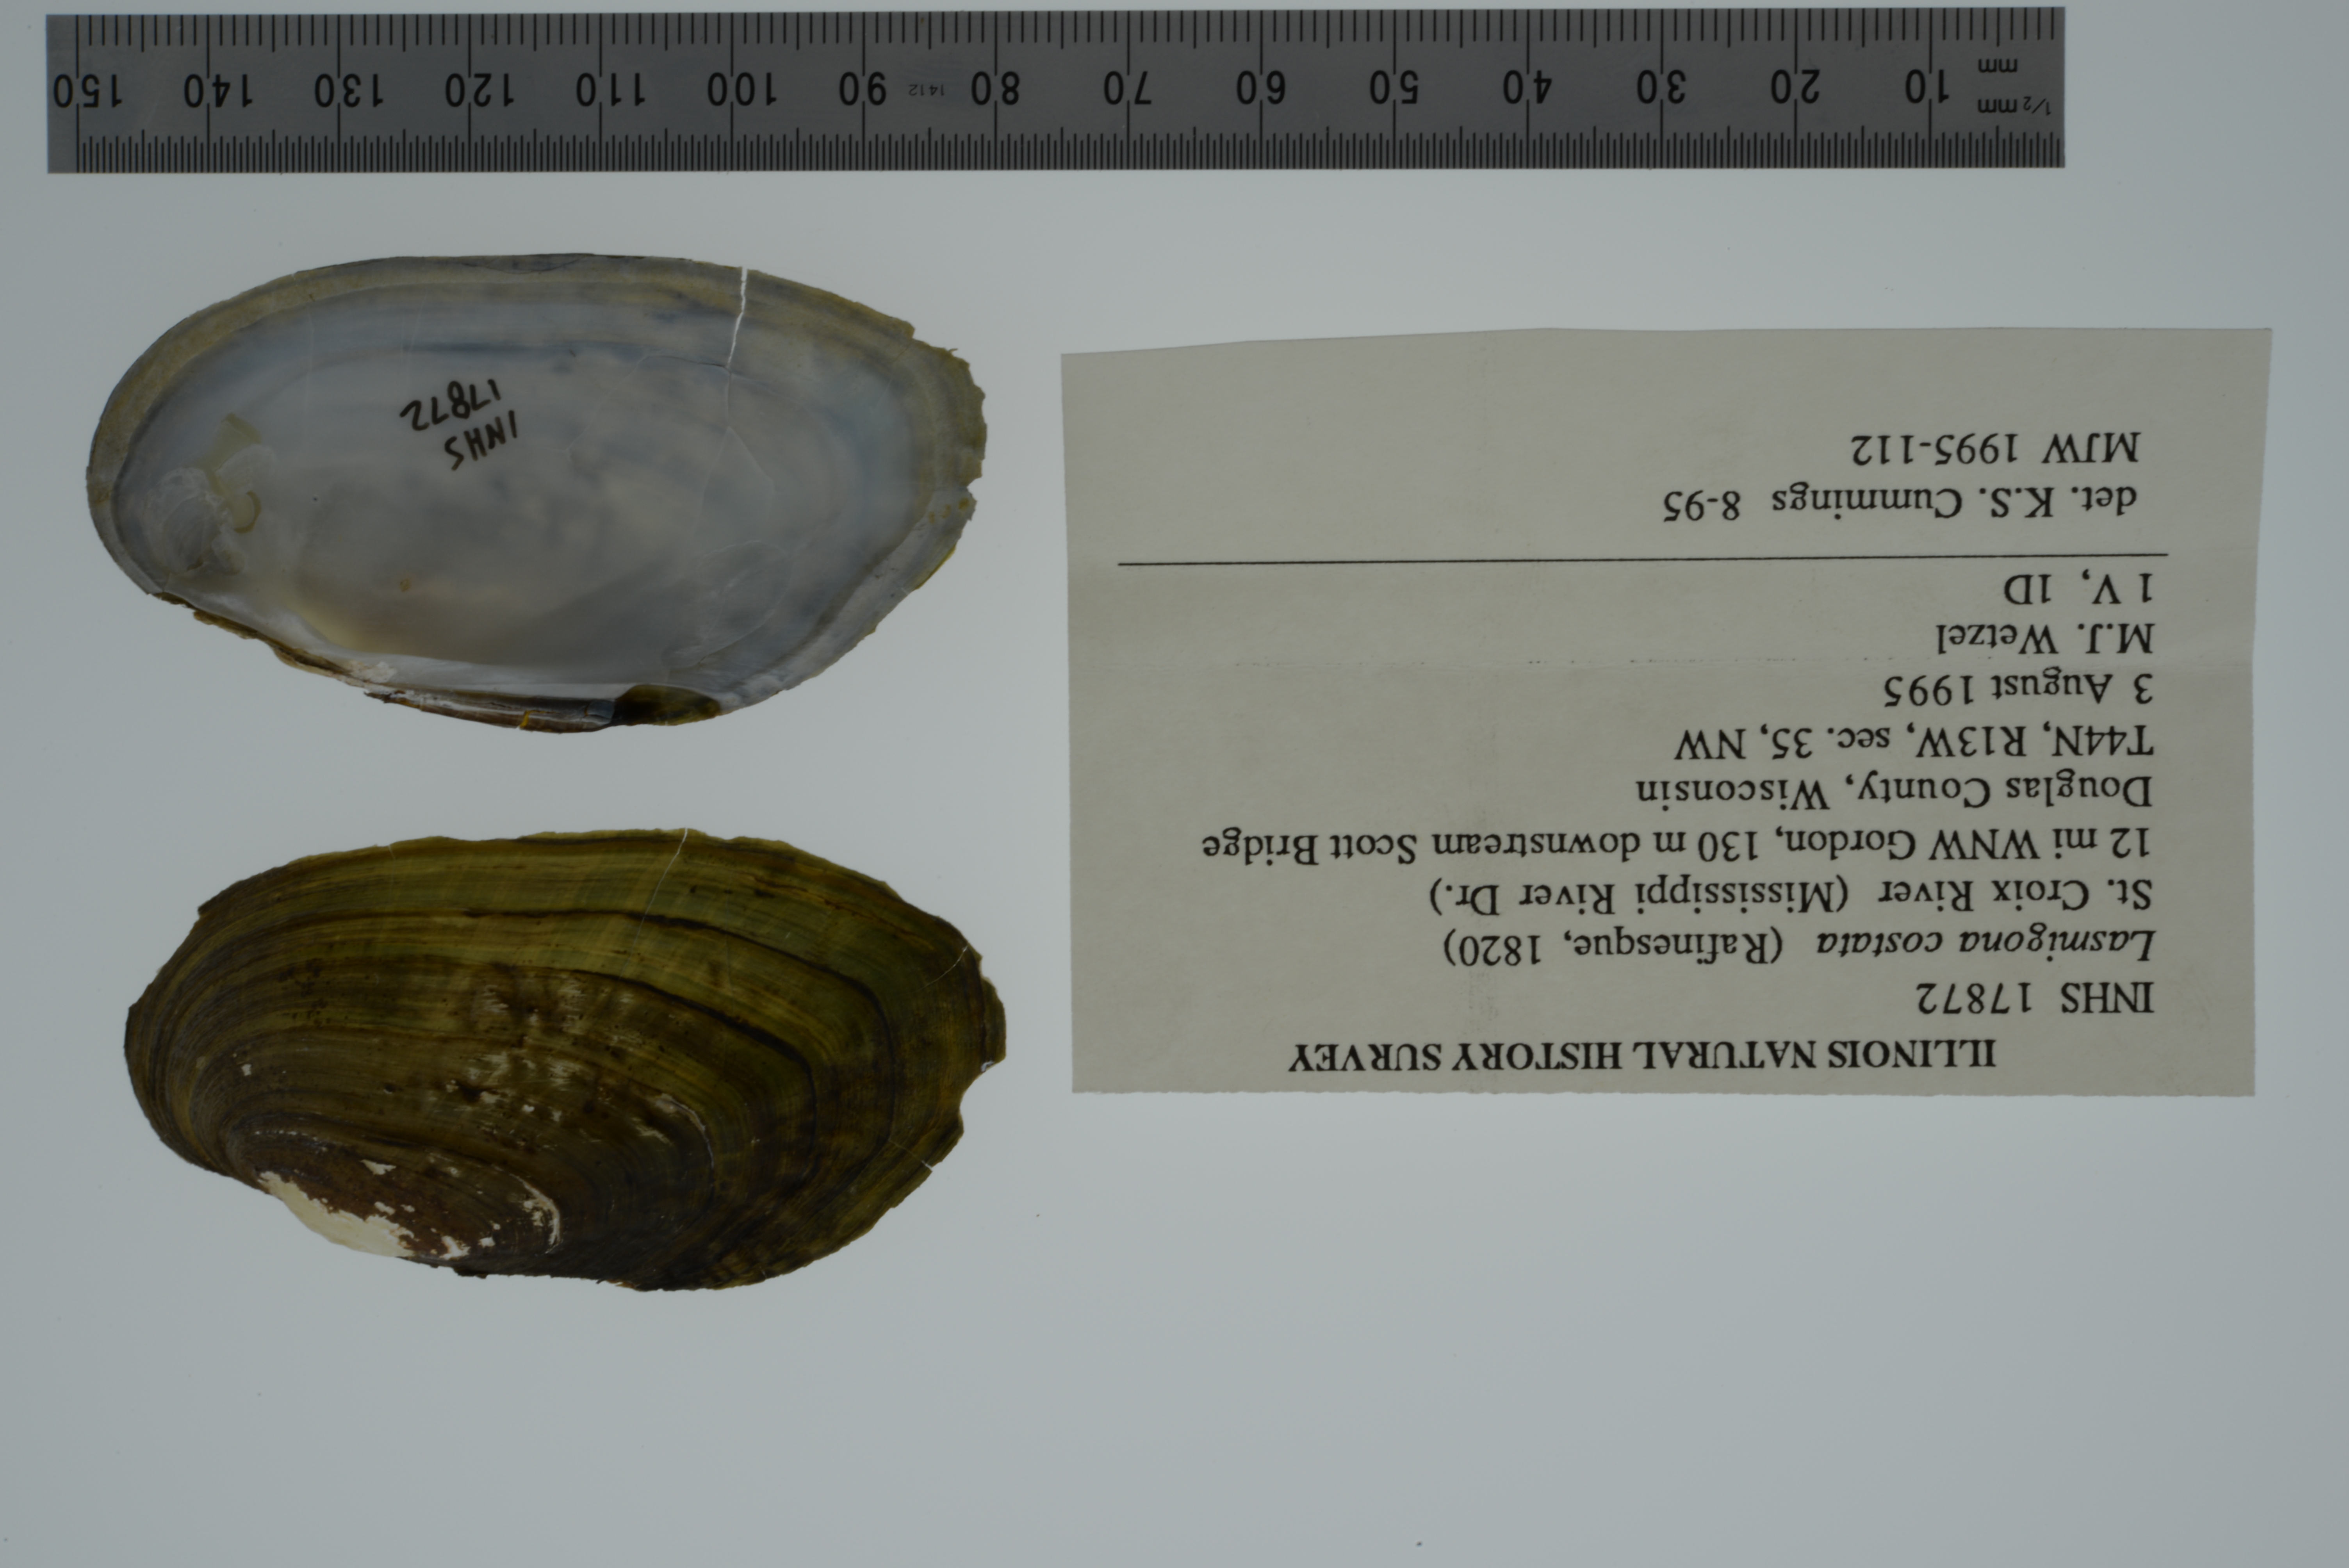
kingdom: Animalia
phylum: Mollusca
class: Bivalvia
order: Unionida
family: Unionidae
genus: Lasmigona
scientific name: Lasmigona costata
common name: Flutedshell
